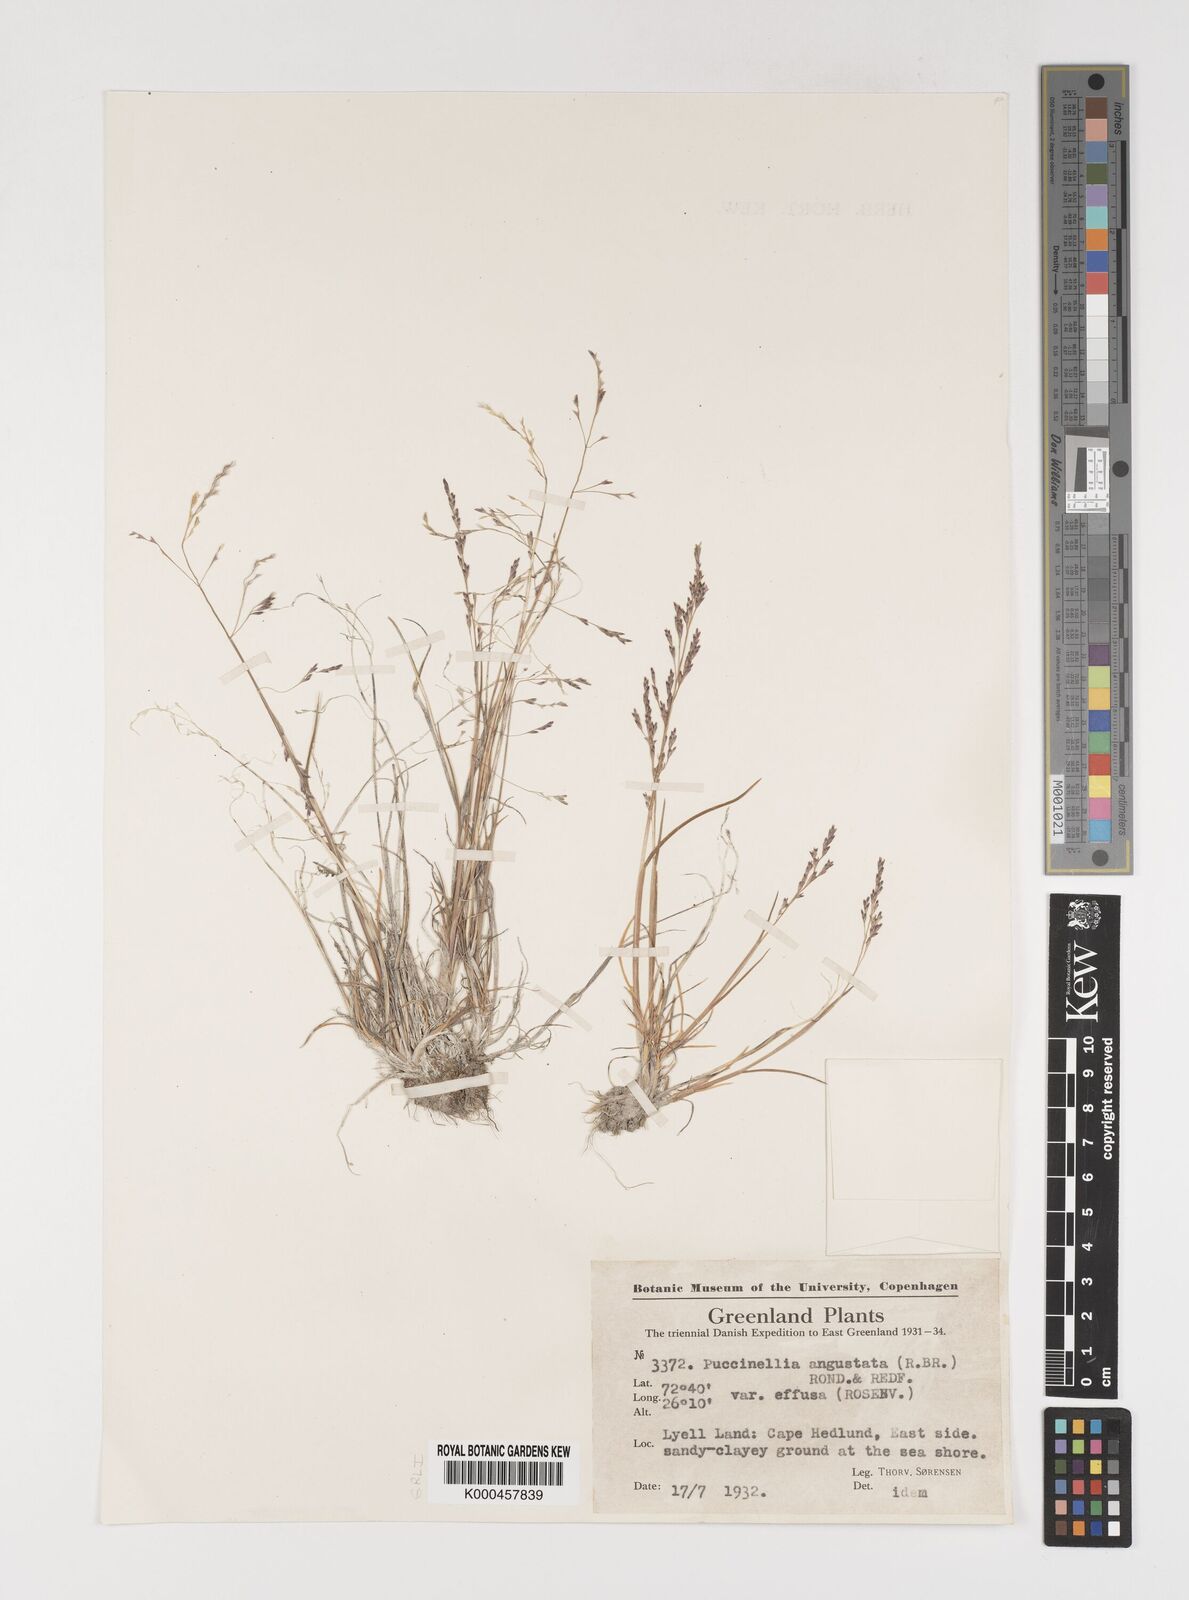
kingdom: Plantae
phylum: Tracheophyta
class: Liliopsida
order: Poales
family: Poaceae
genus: Puccinellia
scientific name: Puccinellia angustata
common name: Narrow alkaligrass
